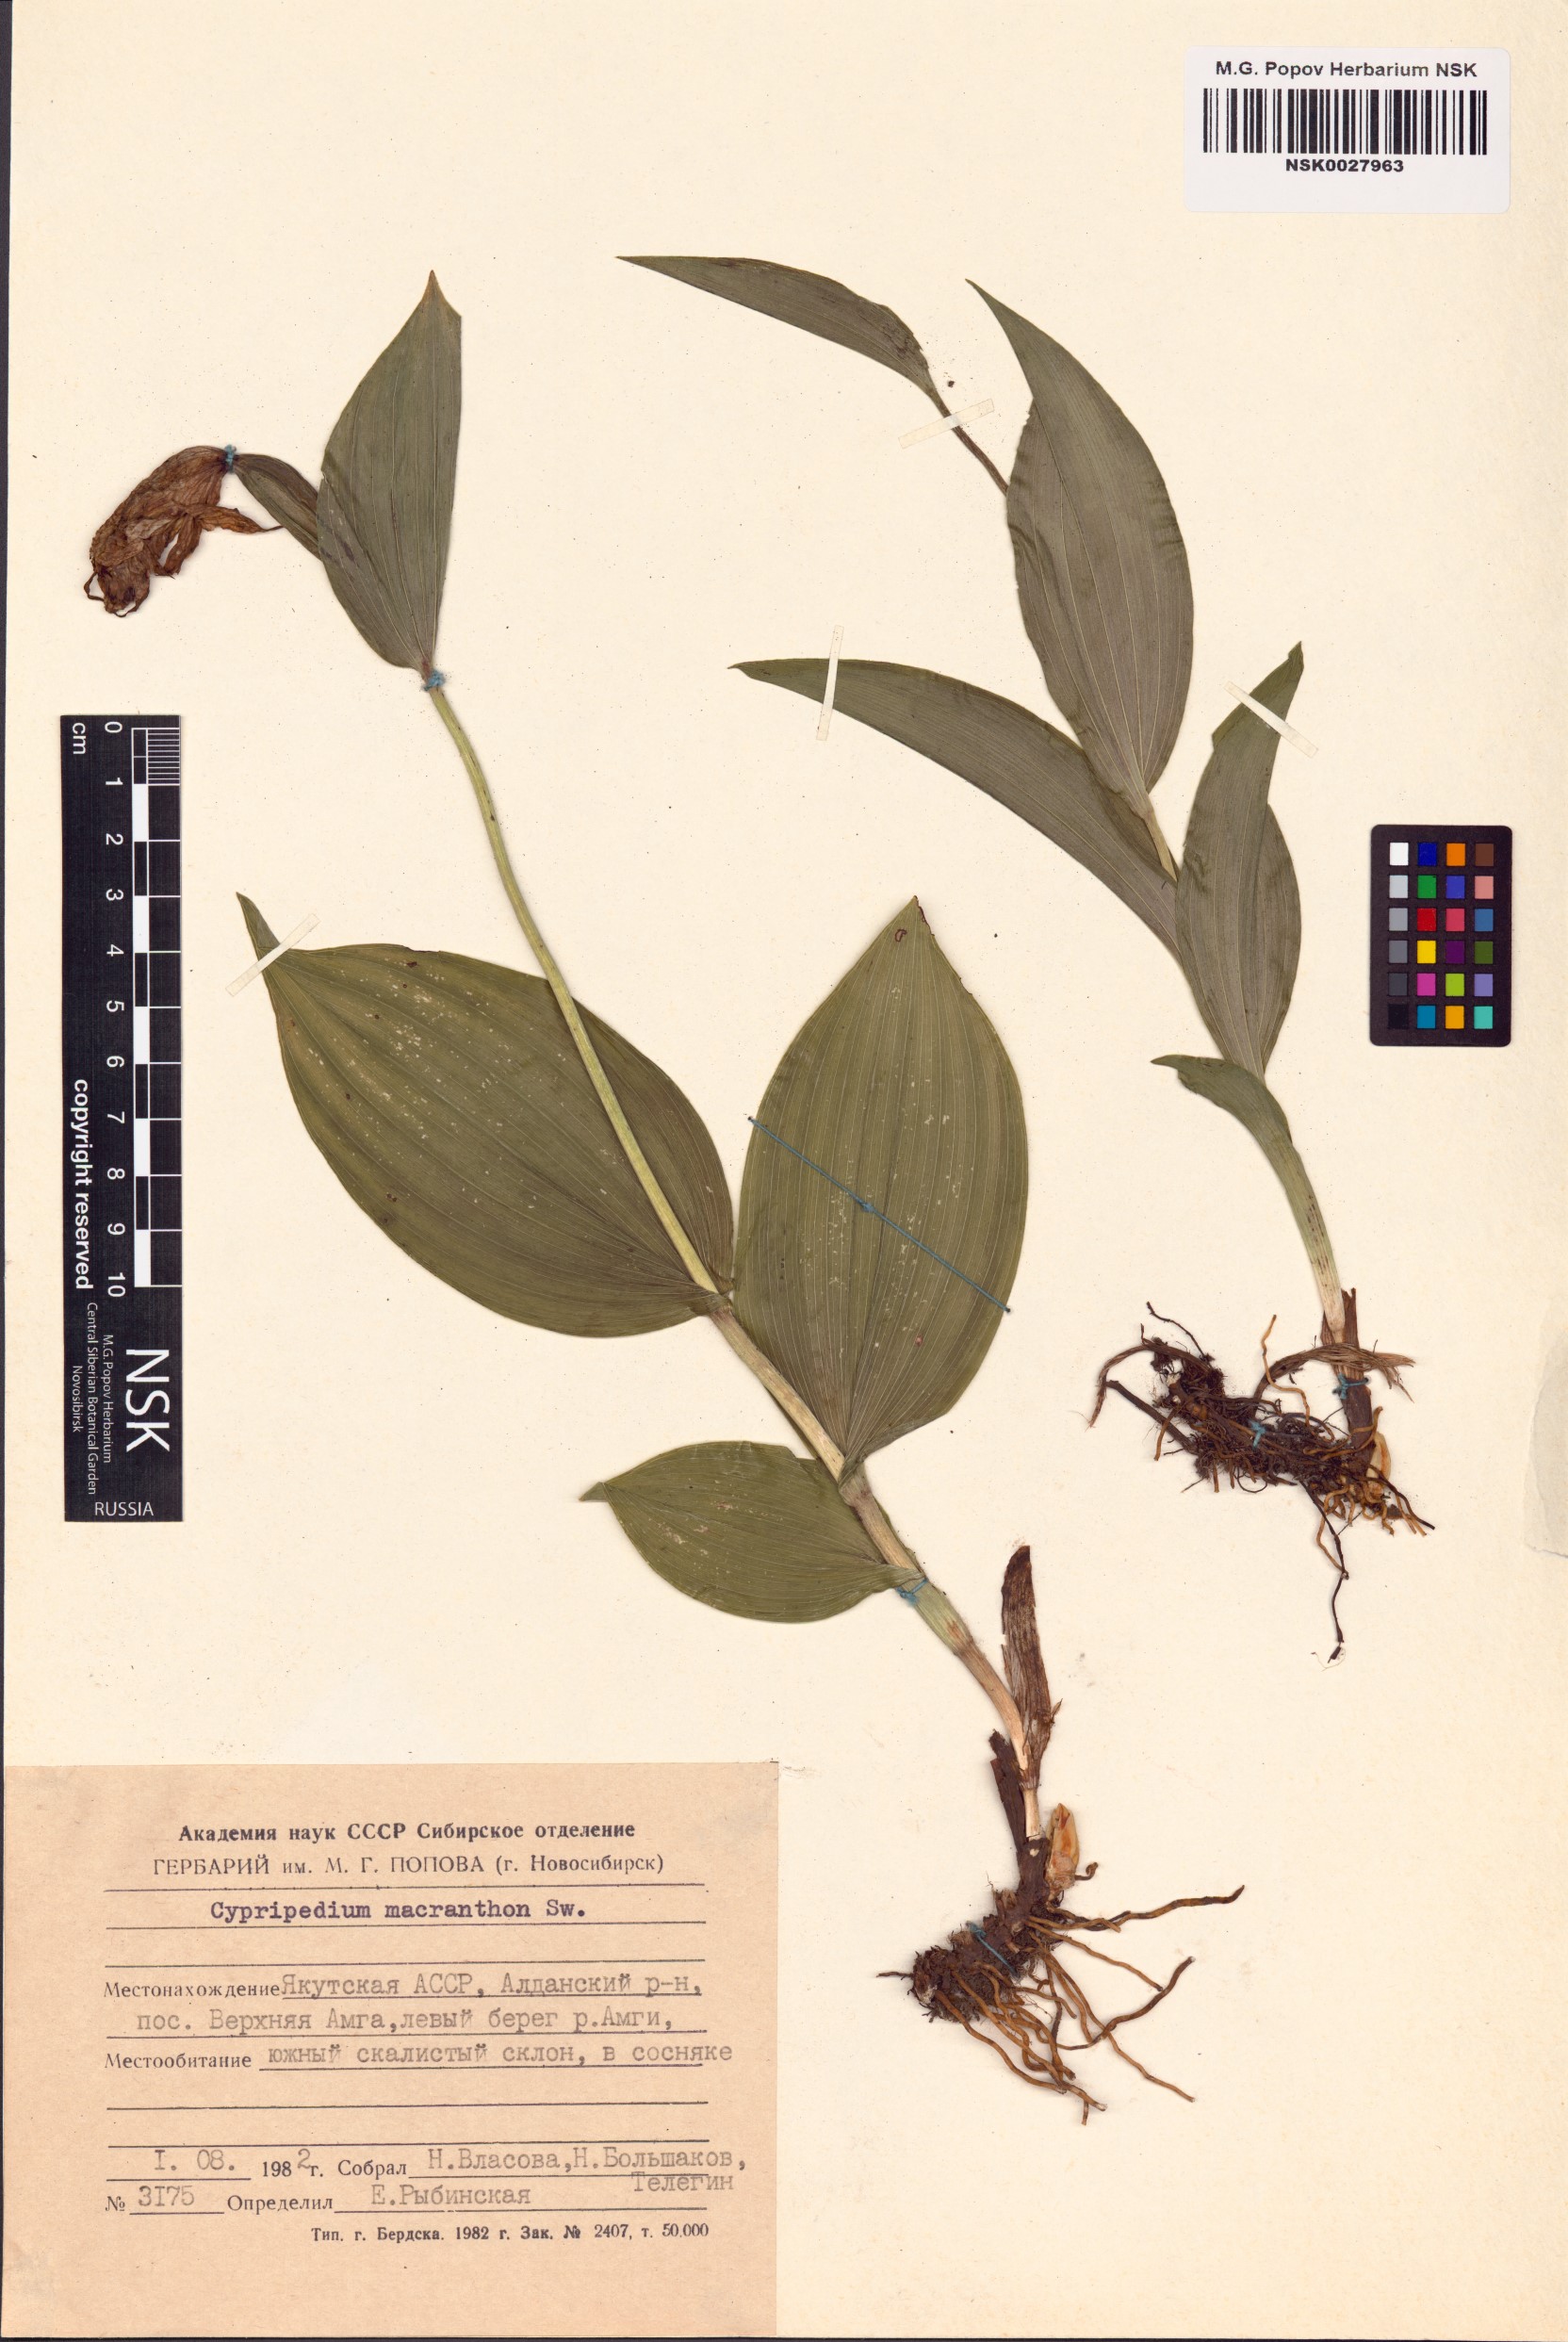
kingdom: Plantae
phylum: Tracheophyta
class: Liliopsida
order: Asparagales
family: Orchidaceae
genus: Cypripedium
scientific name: Cypripedium macranthos
